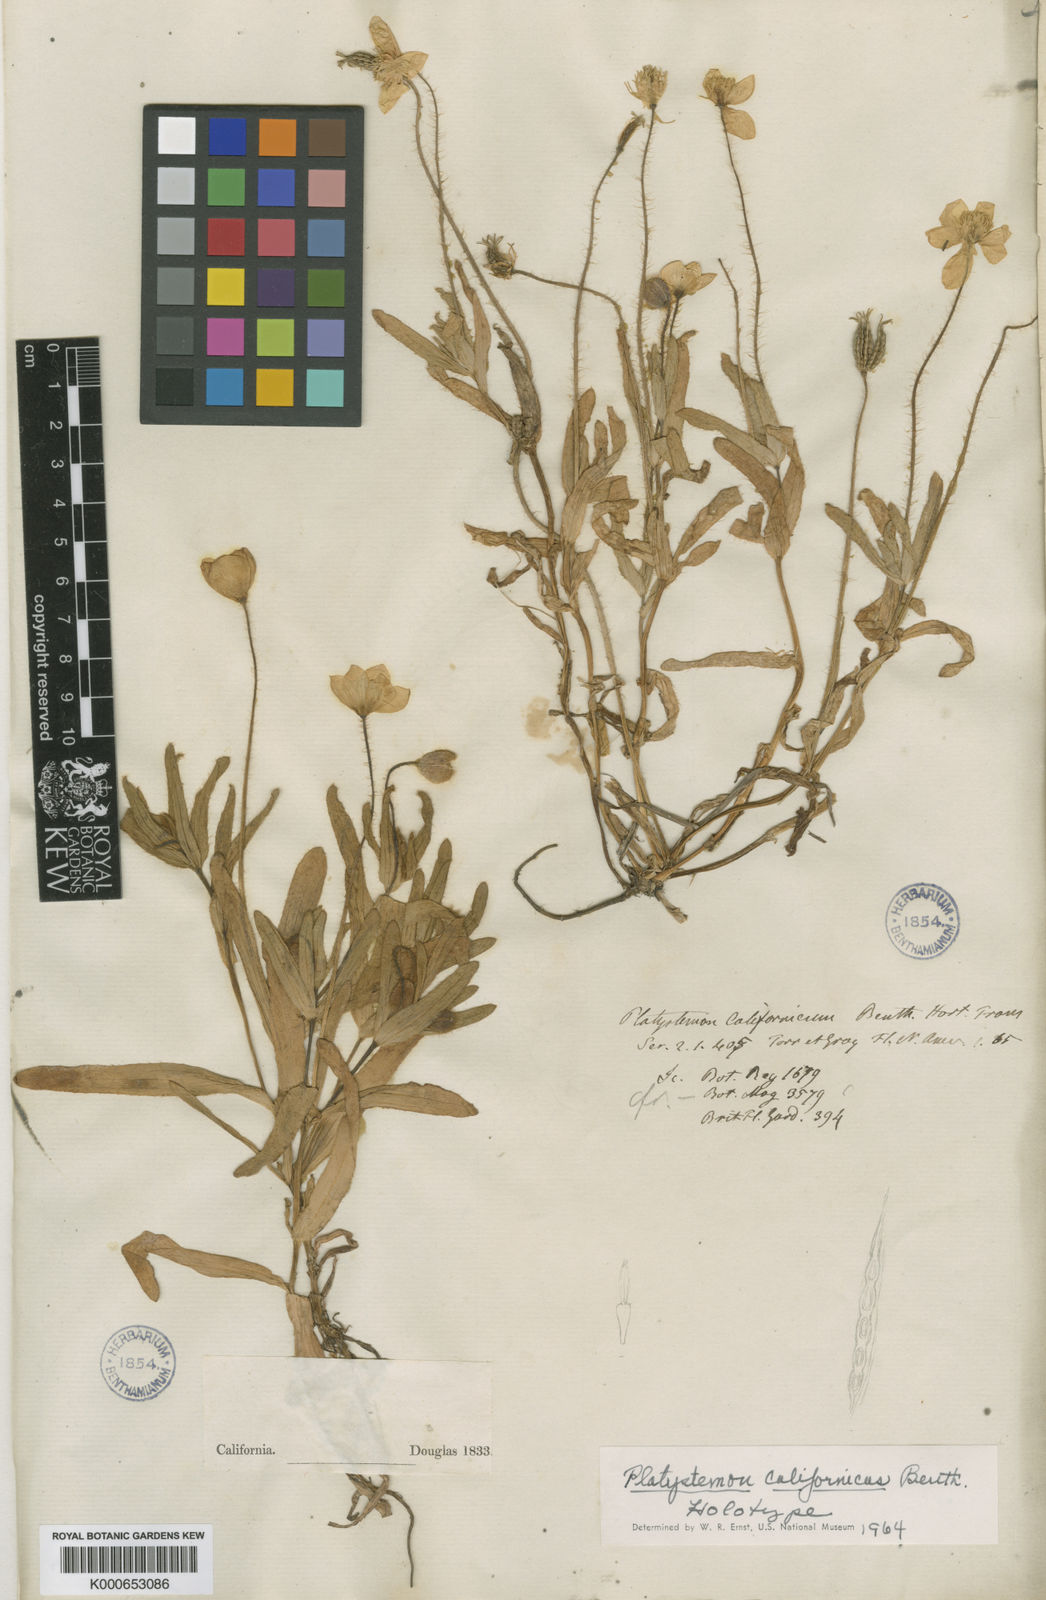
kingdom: Plantae
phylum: Tracheophyta
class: Magnoliopsida
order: Ranunculales
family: Papaveraceae
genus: Platystemon
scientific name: Platystemon californicus
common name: Cream-cups
